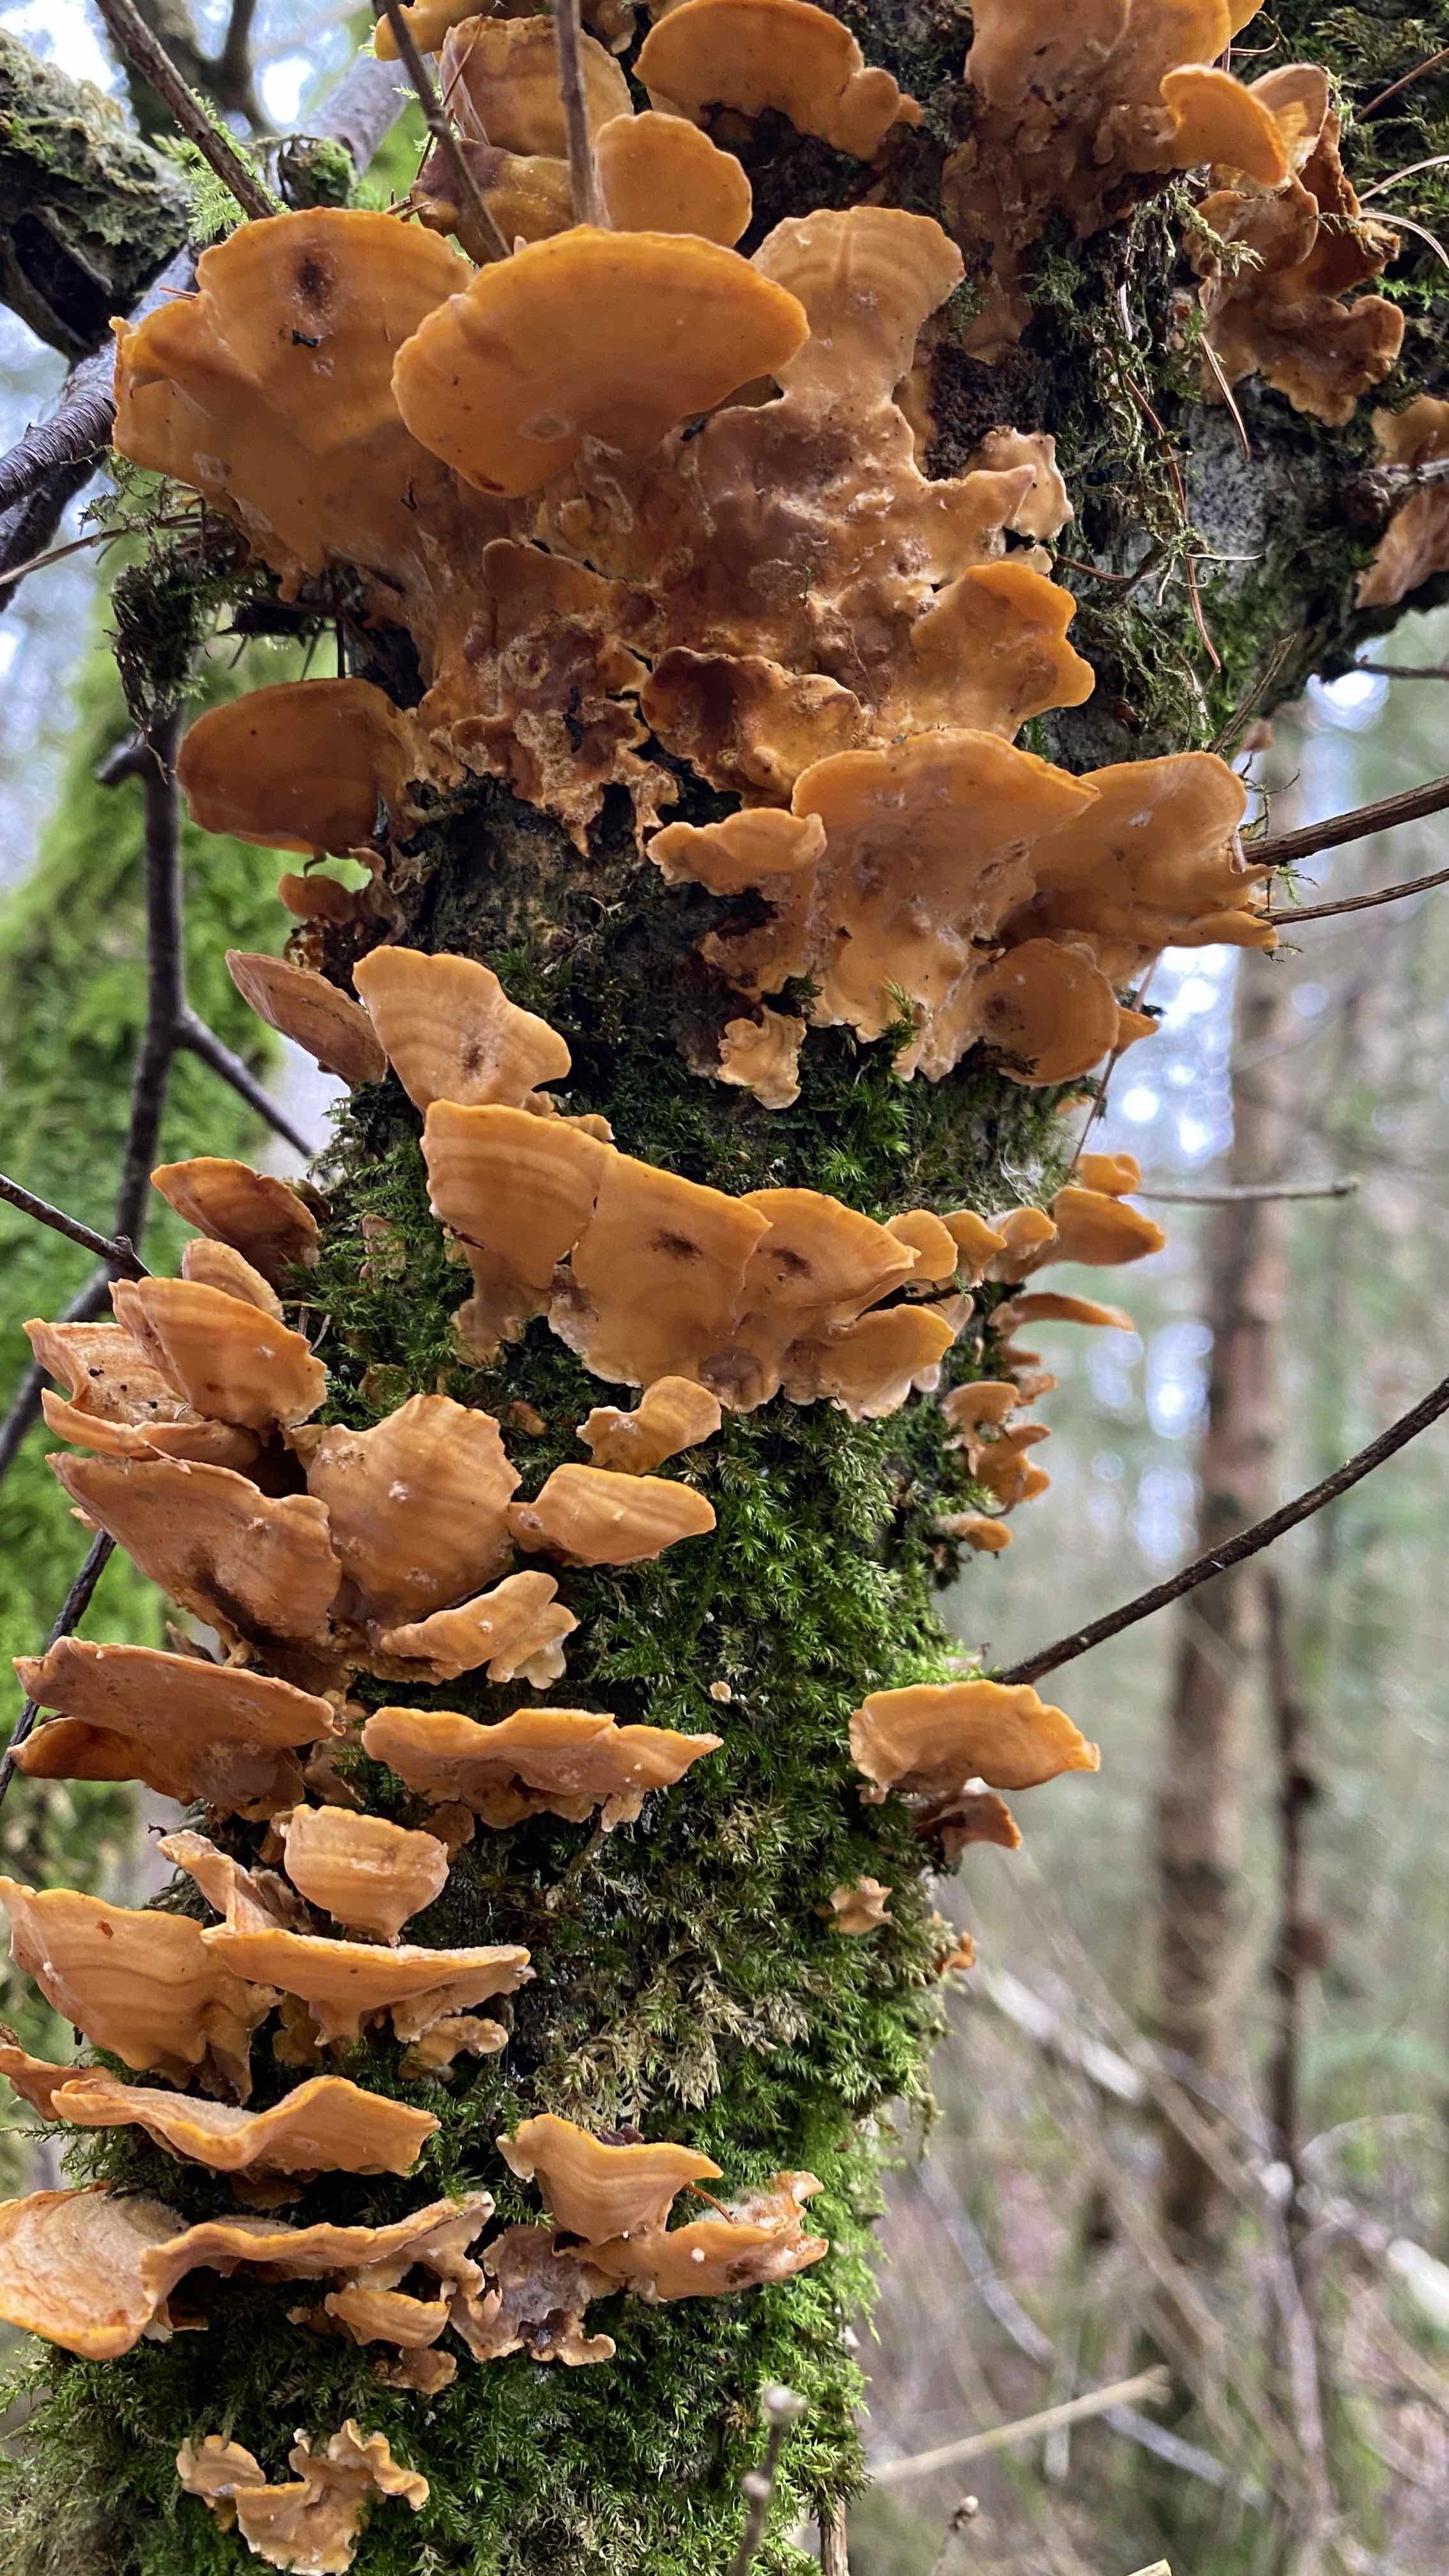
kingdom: Fungi
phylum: Basidiomycota
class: Agaricomycetes
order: Russulales
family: Stereaceae
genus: Stereum
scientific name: Stereum hirsutum
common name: håret lædersvamp
